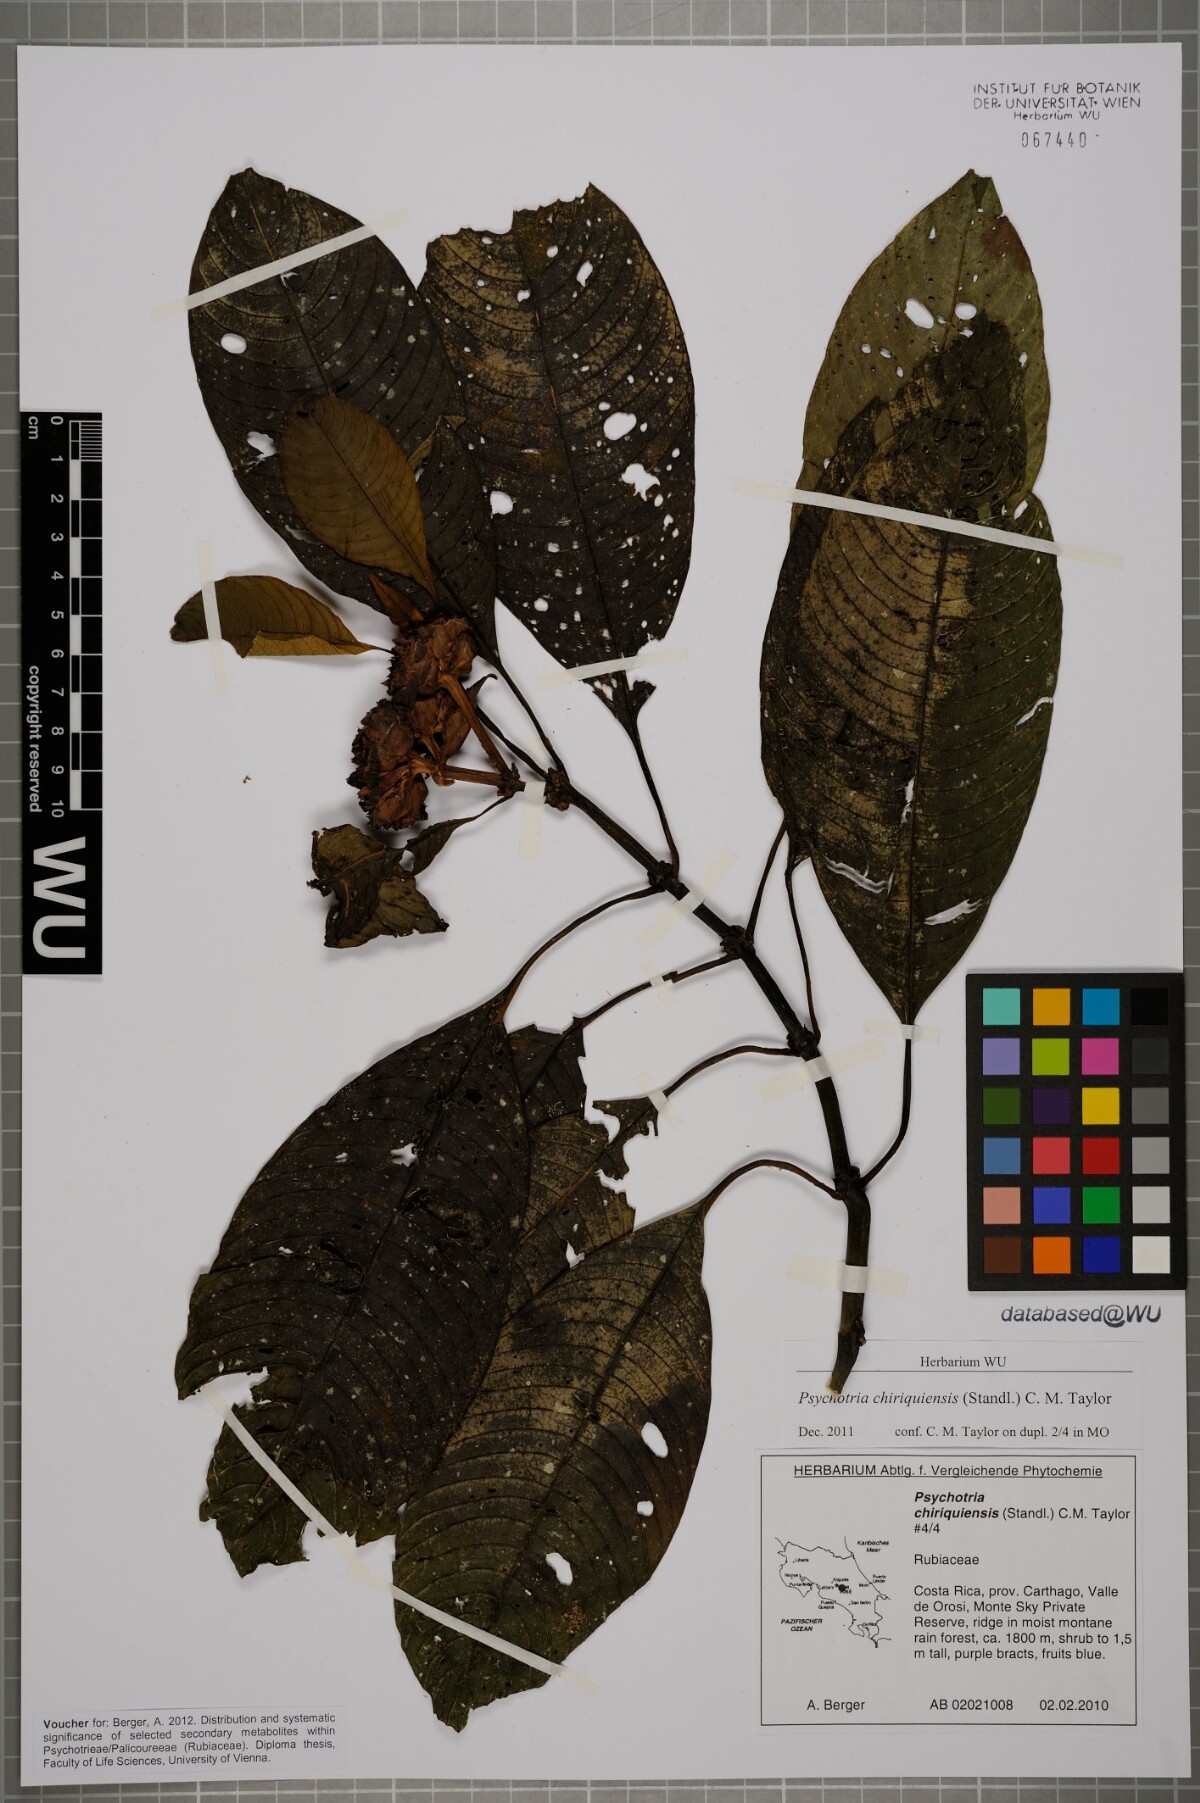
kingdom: Plantae
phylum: Tracheophyta
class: Magnoliopsida
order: Gentianales
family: Rubiaceae
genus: Palicourea
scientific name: Palicourea chiriquiensis
